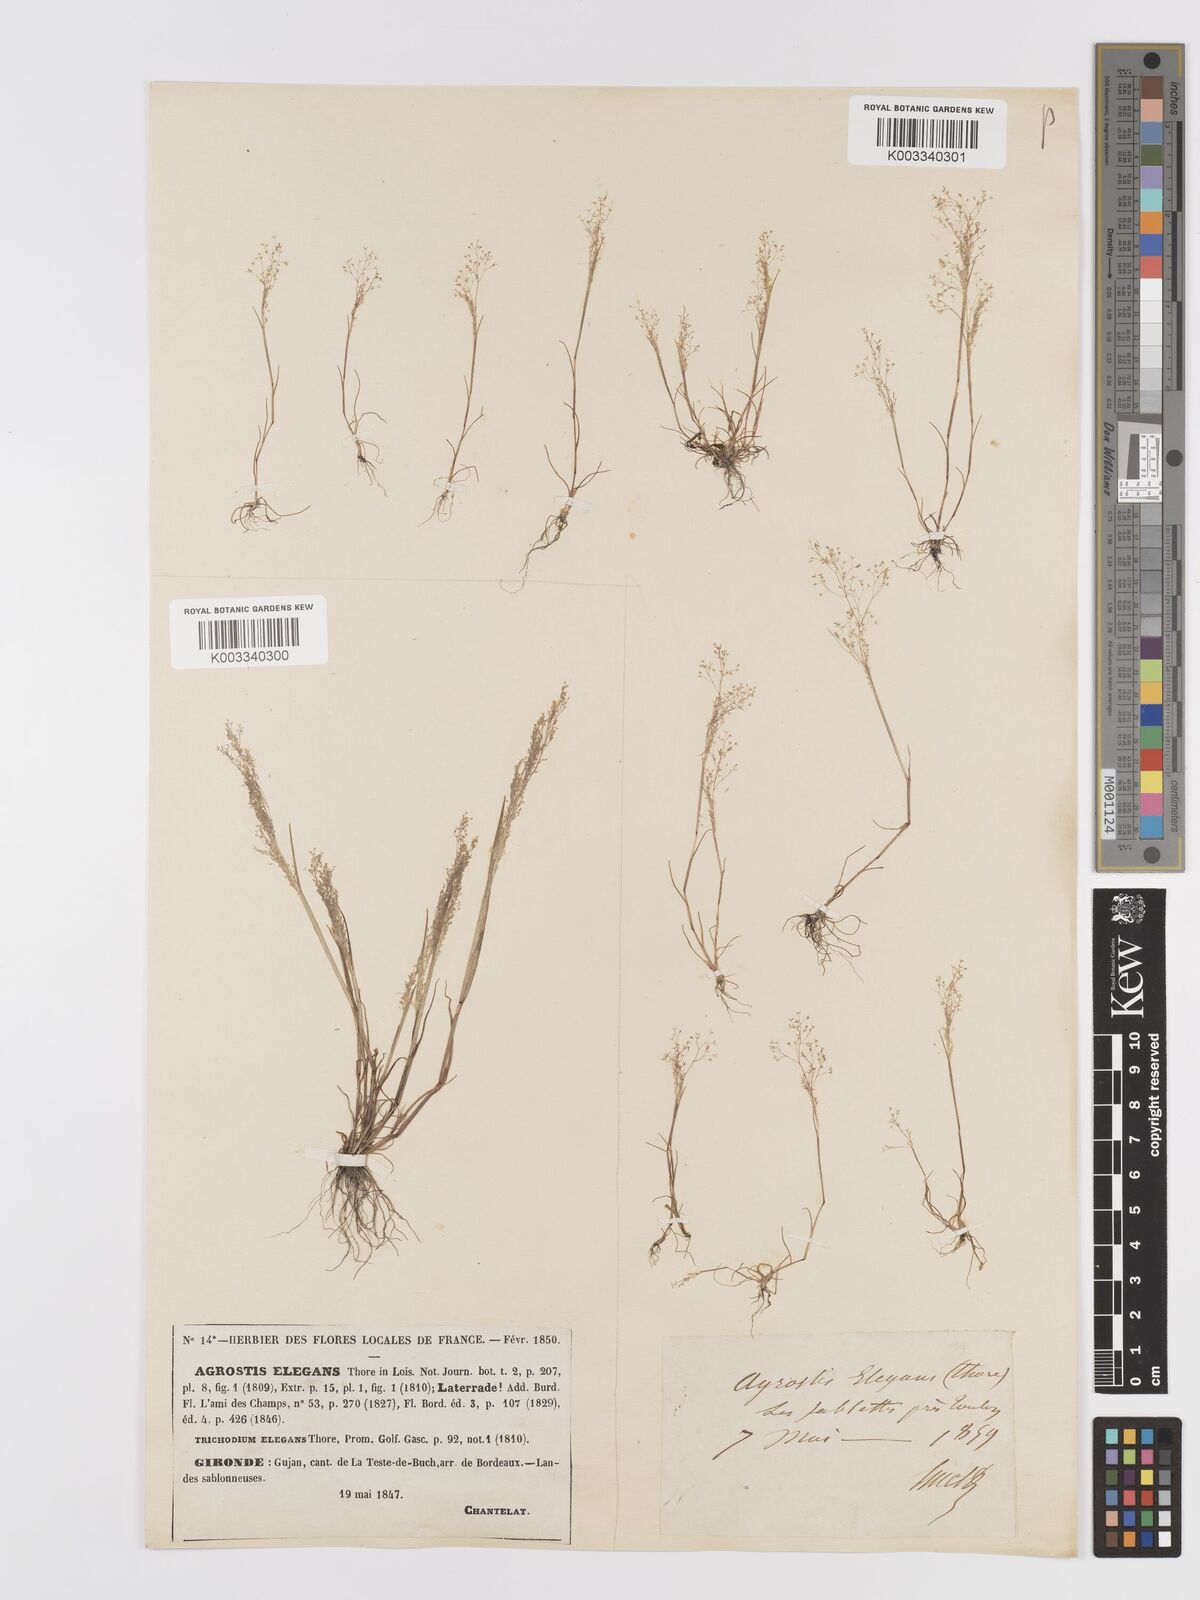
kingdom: Plantae
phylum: Tracheophyta
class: Liliopsida
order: Poales
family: Poaceae
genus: Agrostis
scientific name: Agrostis tenerrima
